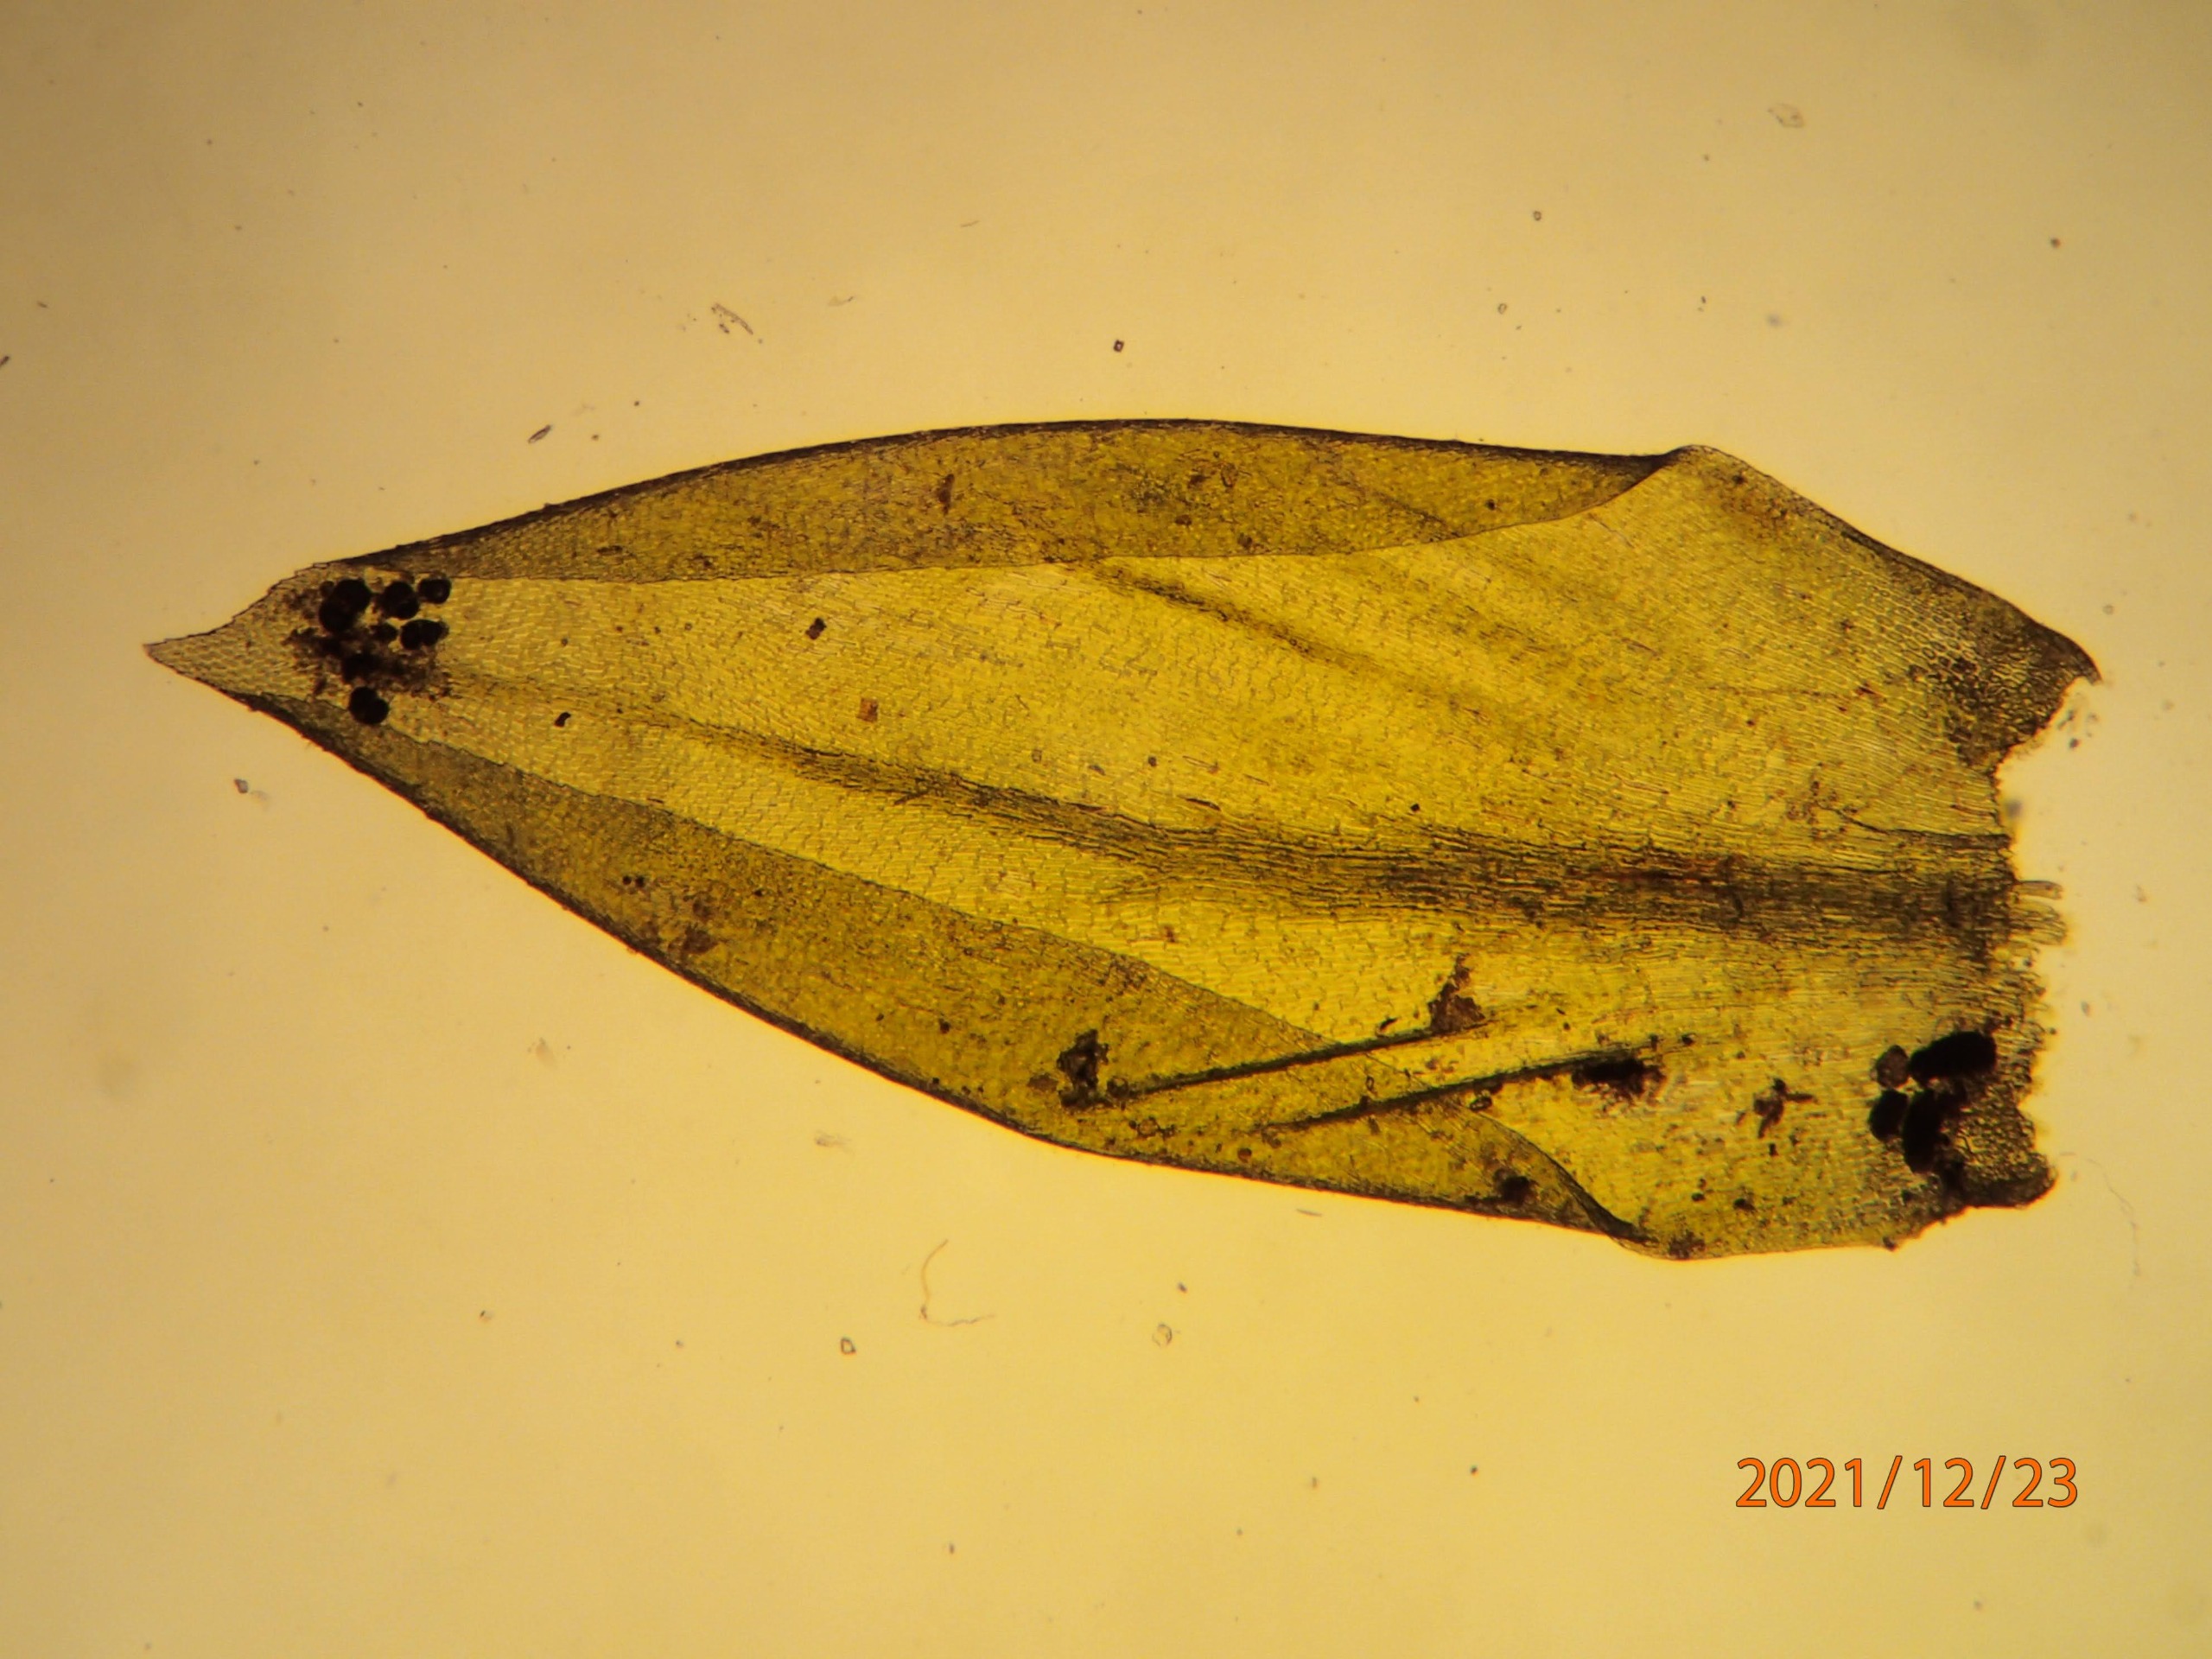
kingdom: Plantae
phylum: Bryophyta
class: Bryopsida
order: Hypnales
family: Lembophyllaceae
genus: Isothecium
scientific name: Isothecium alopecuroides
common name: Stor stammemos
